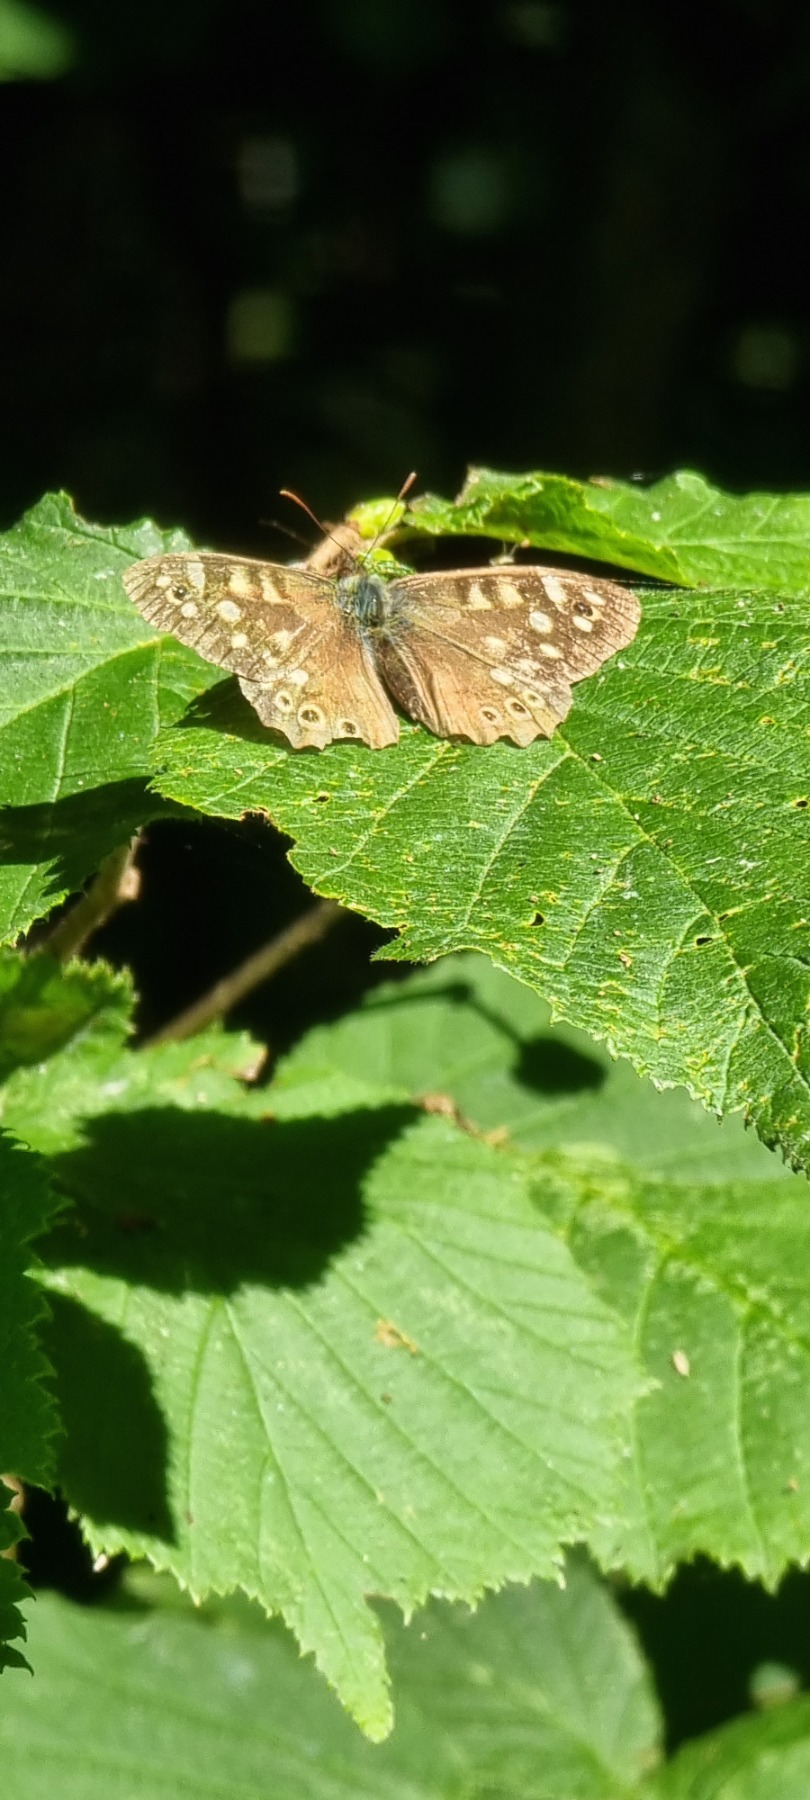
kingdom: Animalia
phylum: Arthropoda
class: Insecta
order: Lepidoptera
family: Nymphalidae
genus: Pararge
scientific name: Pararge aegeria
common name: Skovrandøje
